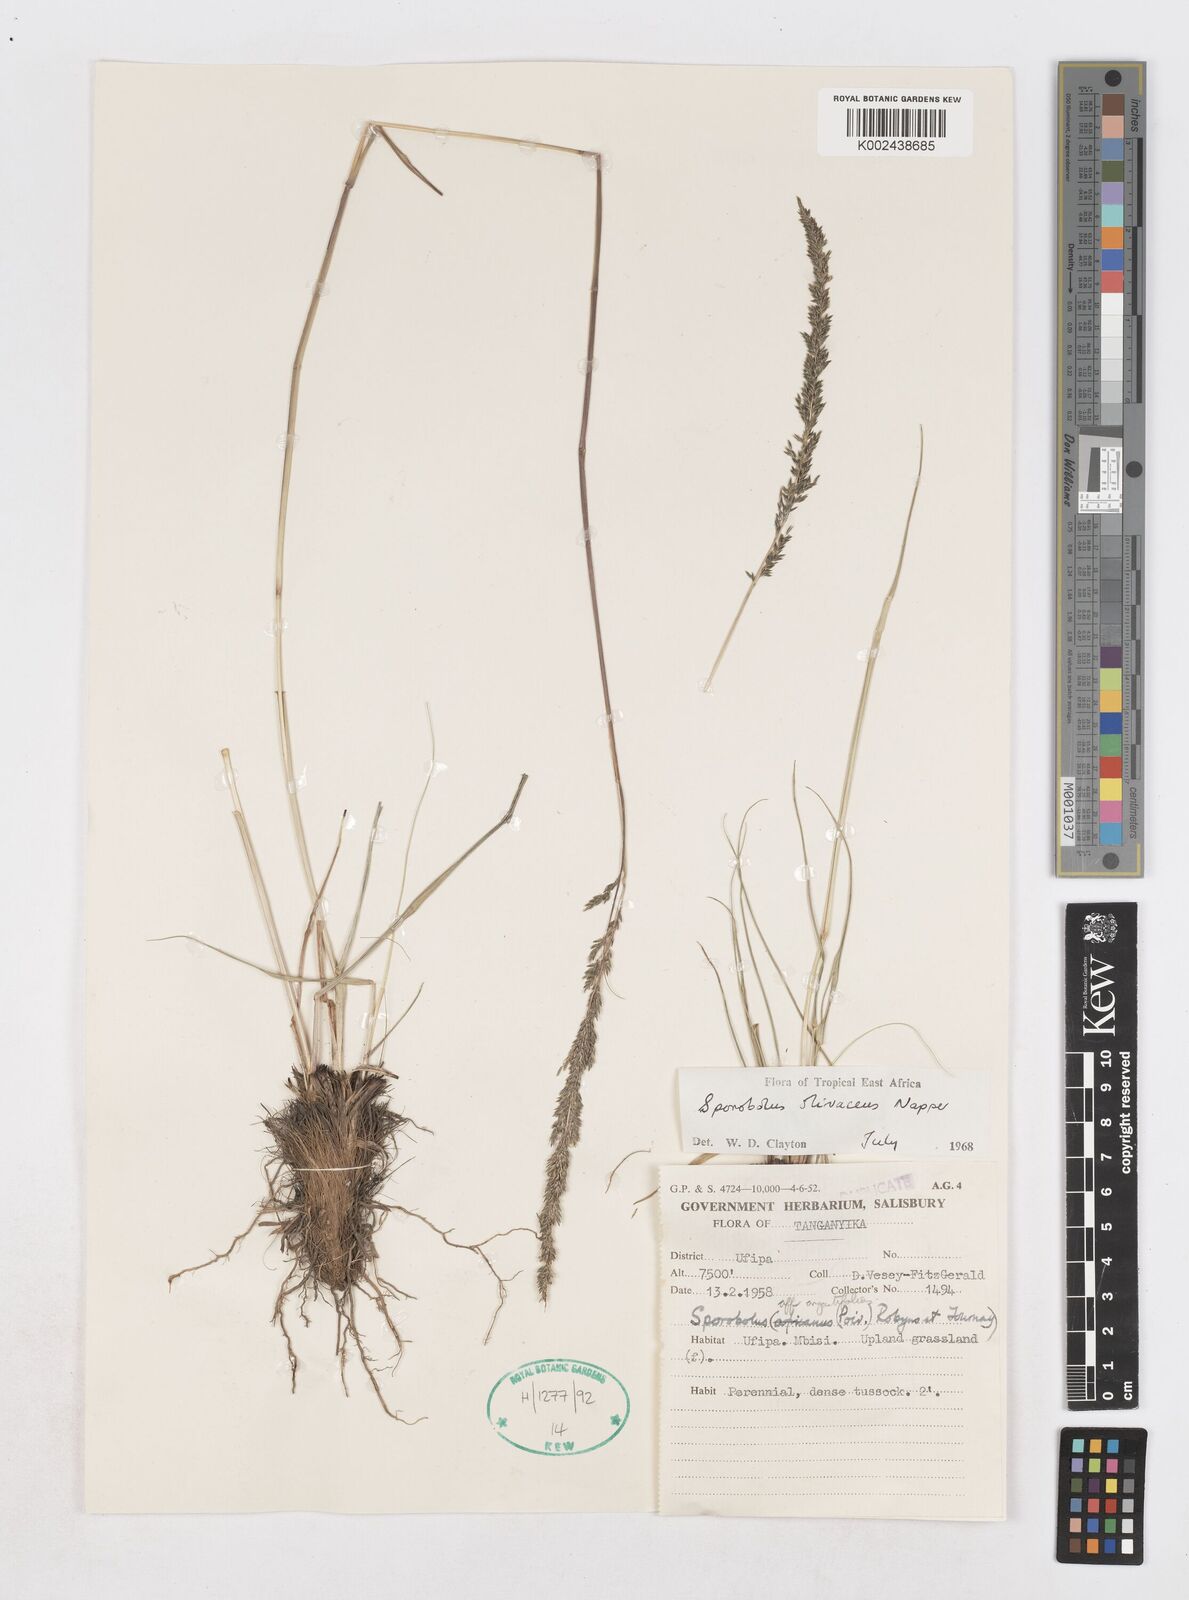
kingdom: Plantae
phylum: Tracheophyta
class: Liliopsida
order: Poales
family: Poaceae
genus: Sporobolus
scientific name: Sporobolus olivaceus
